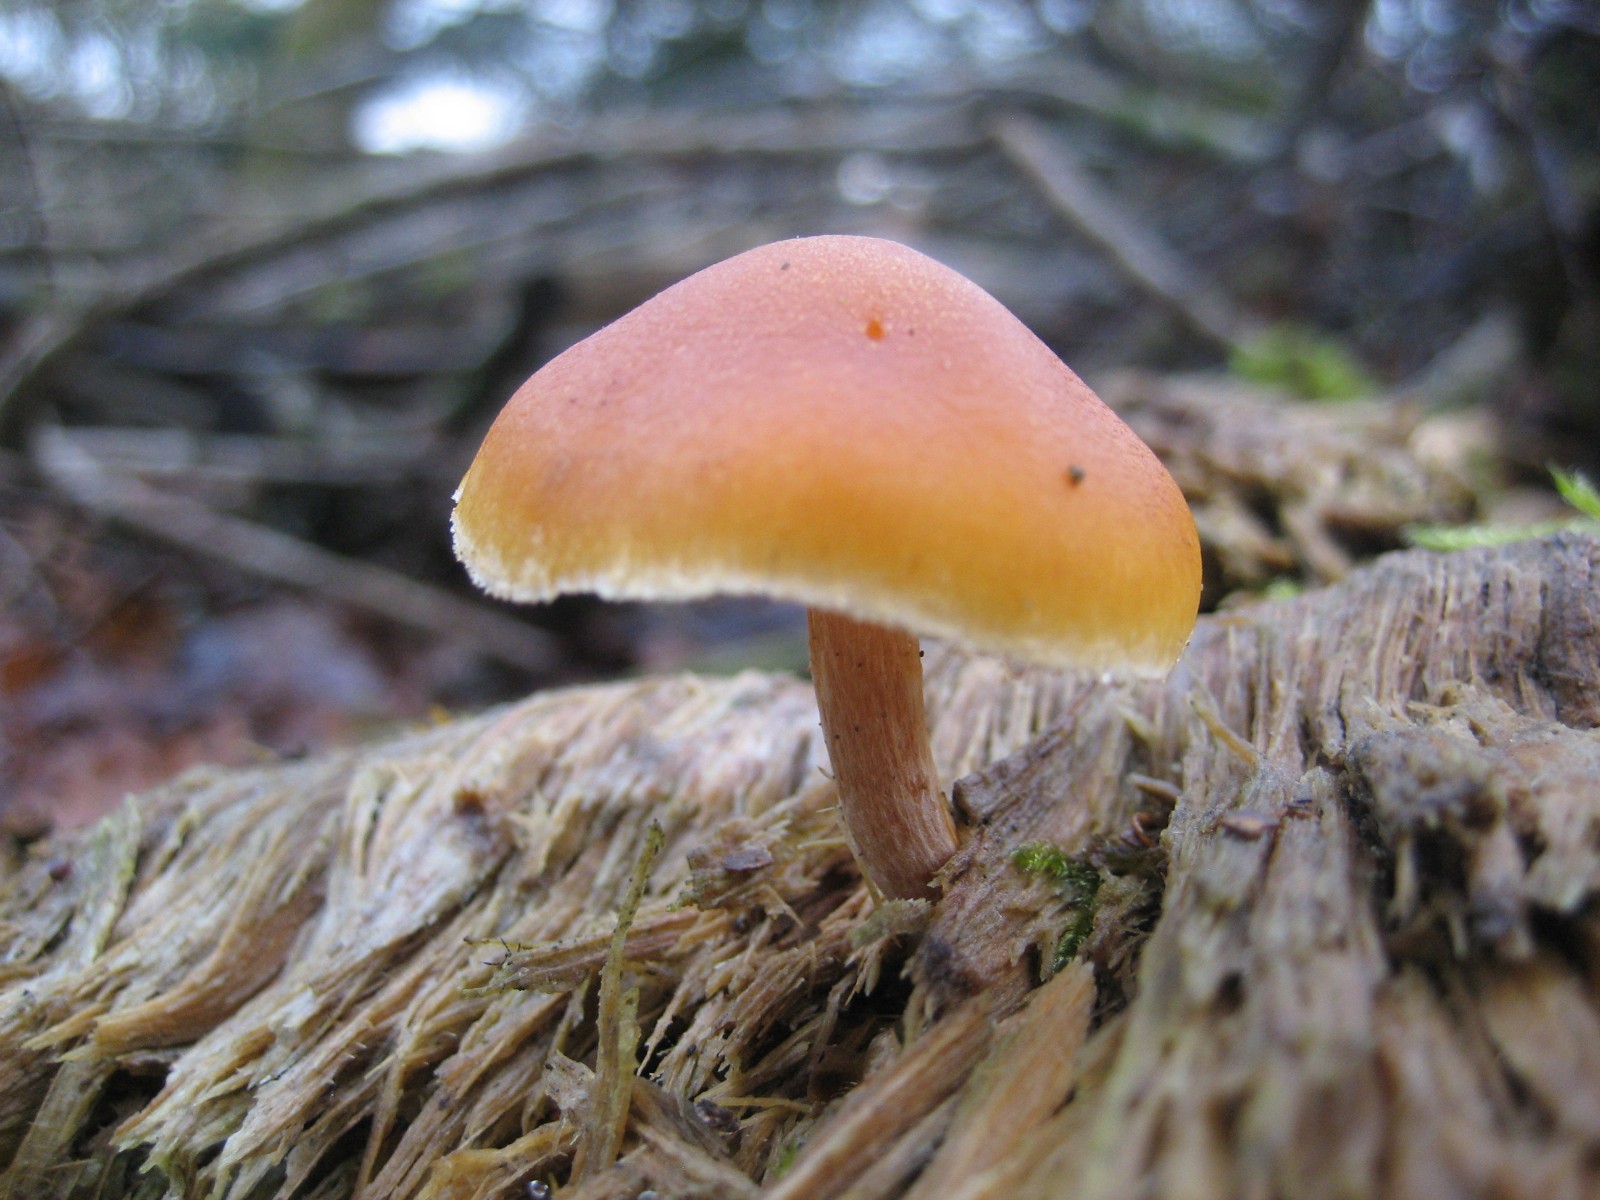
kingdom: Fungi
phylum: Basidiomycota
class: Agaricomycetes
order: Agaricales
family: Hymenogastraceae
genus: Gymnopilus
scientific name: Gymnopilus penetrans
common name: plettet flammehat
